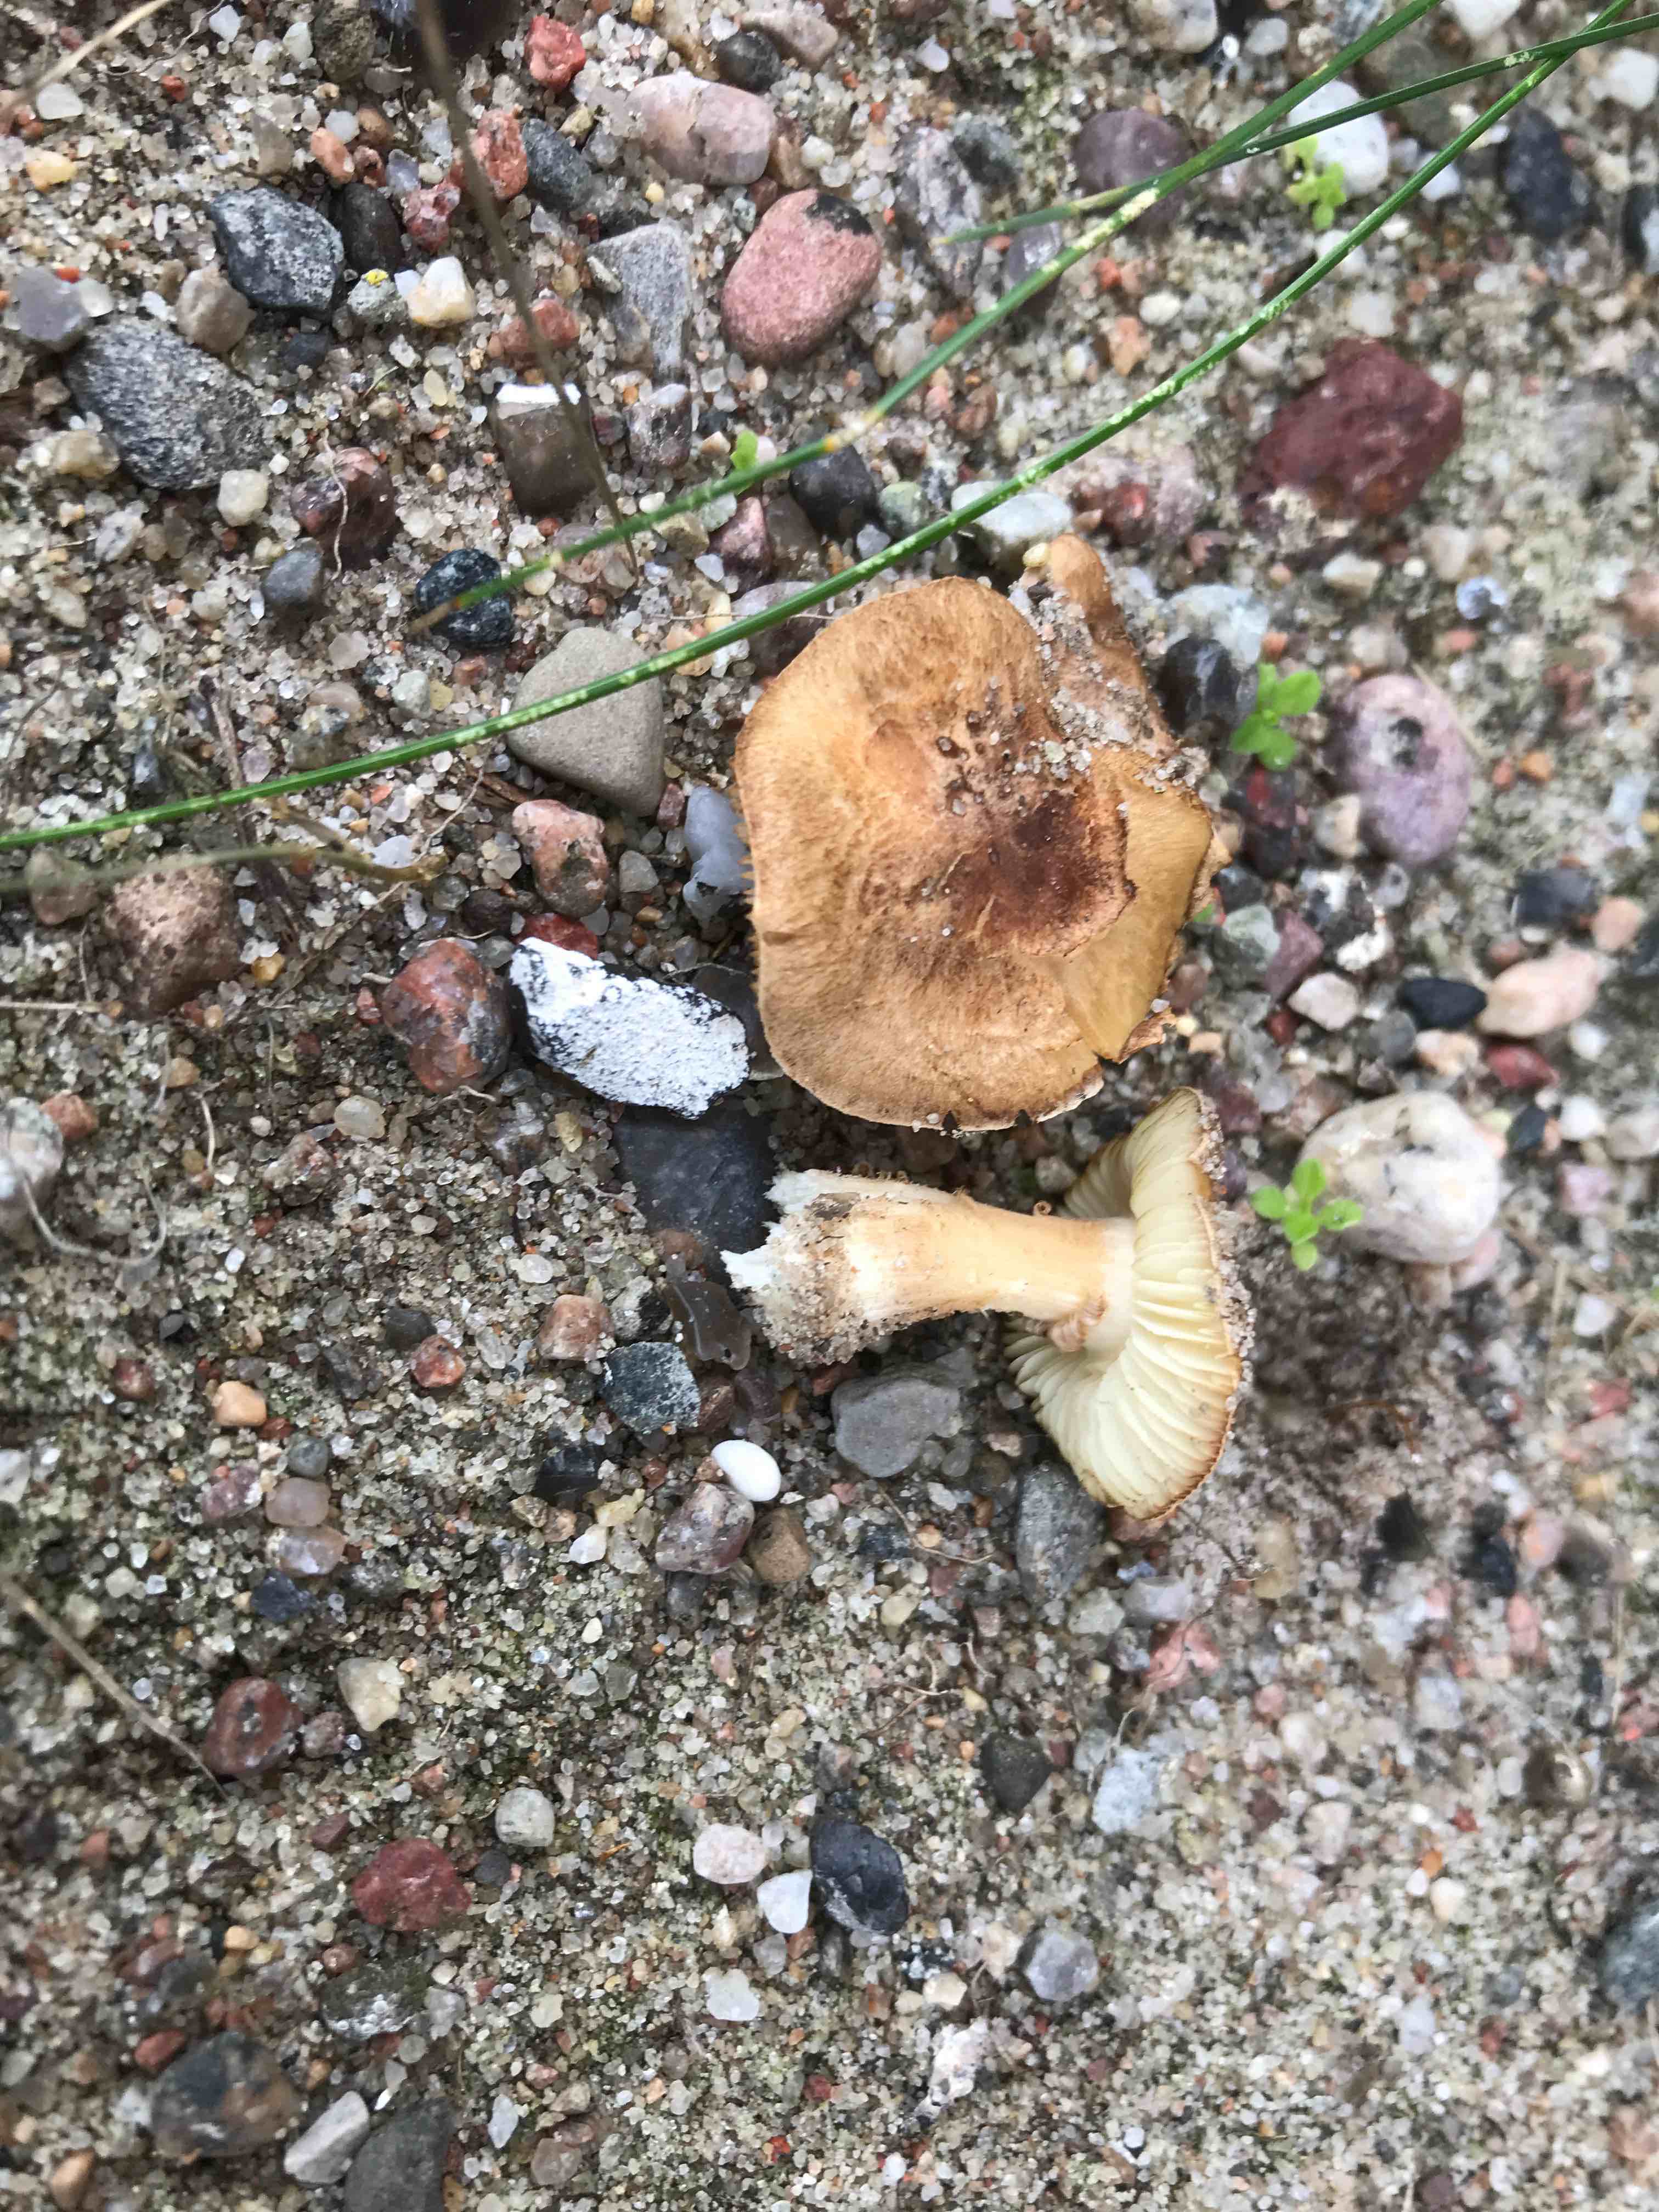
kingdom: Fungi
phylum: Basidiomycota
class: Agaricomycetes
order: Agaricales
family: Inocybaceae
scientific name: Inocybaceae
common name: trævlhatfamilien
